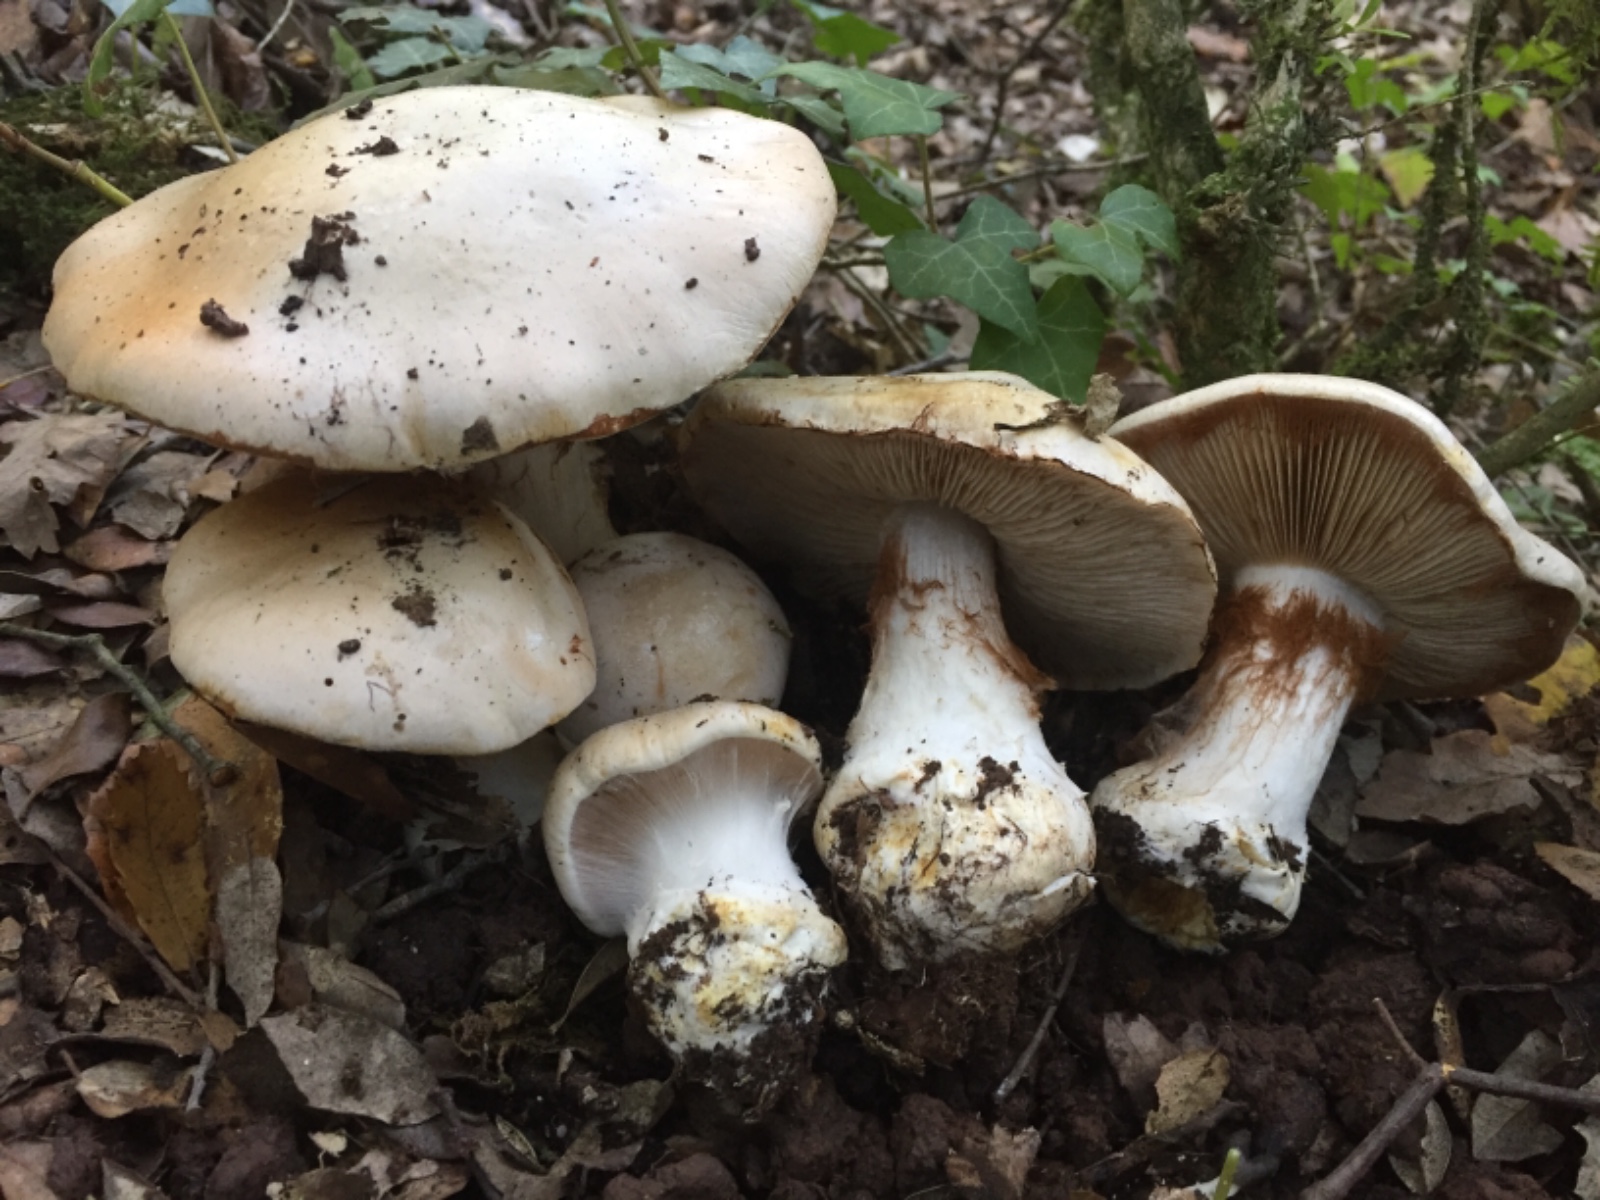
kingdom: Fungi
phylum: Basidiomycota
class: Agaricomycetes
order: Agaricales
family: Cortinariaceae
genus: Cortinarius
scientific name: Cortinarius aleuriosmus
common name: Mealy webcap
